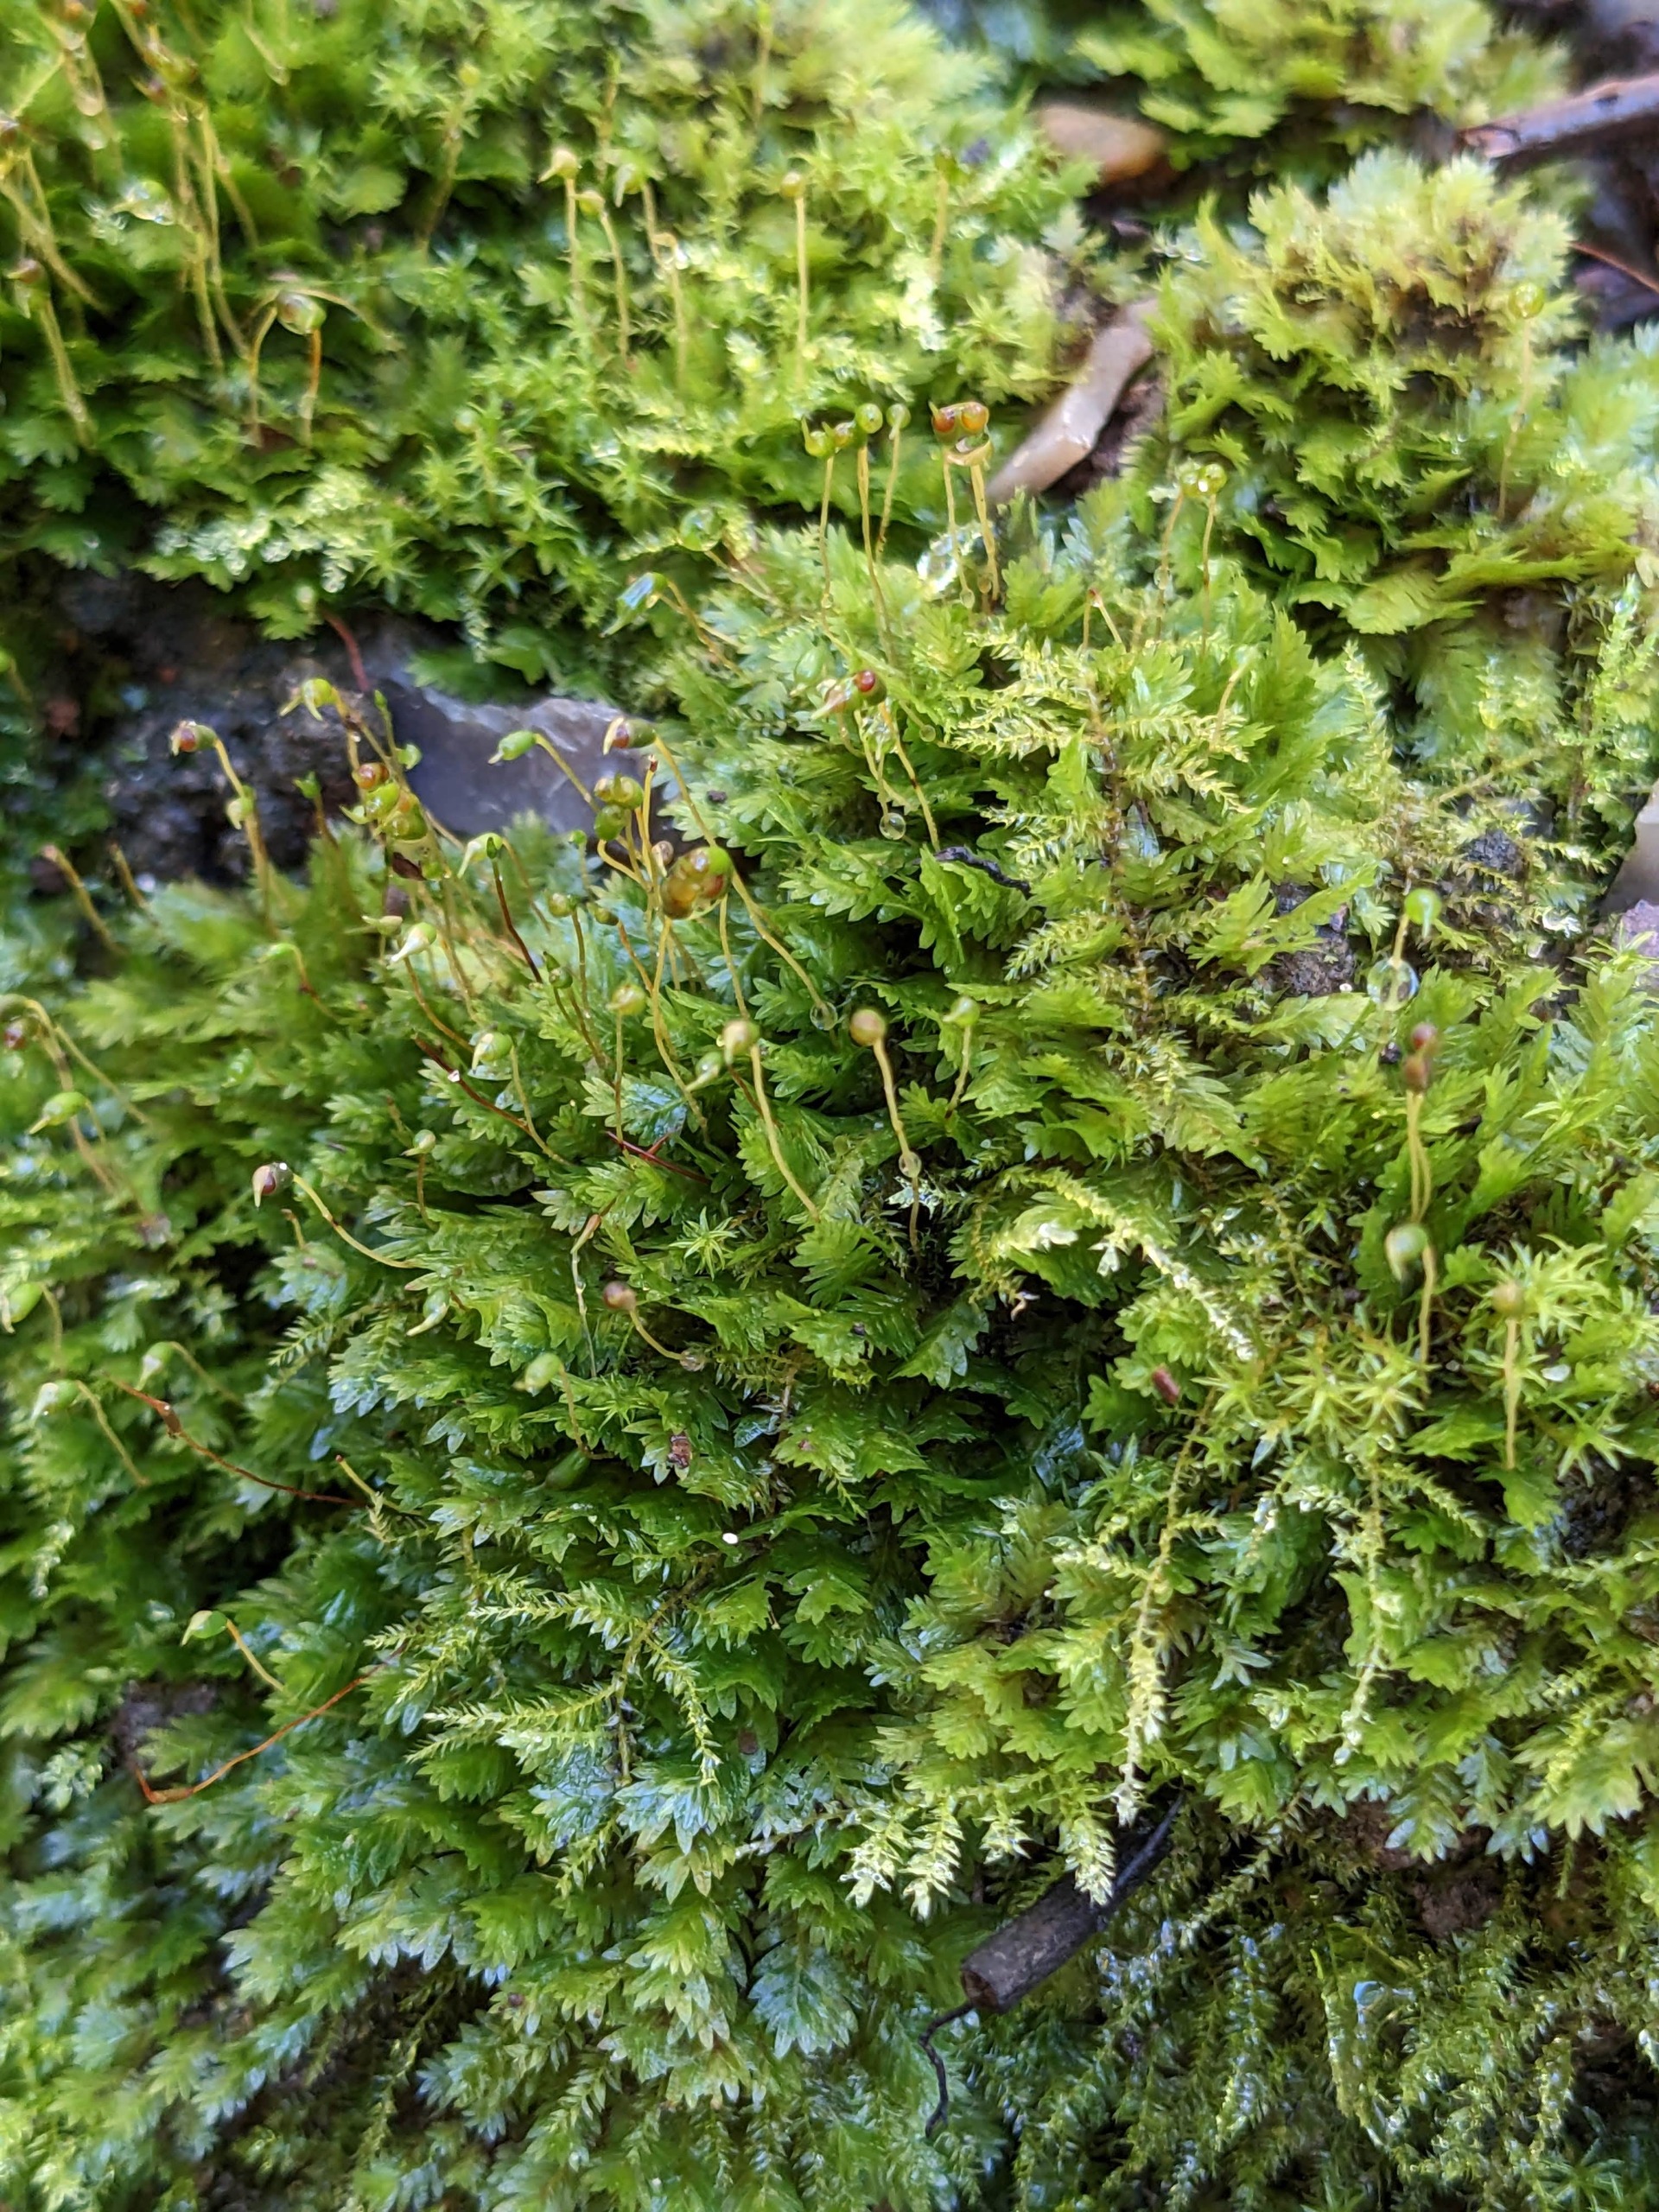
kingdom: Plantae
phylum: Bryophyta
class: Bryopsida
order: Dicranales
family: Fissidentaceae
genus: Fissidens
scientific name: Fissidens taxifolius
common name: Taksbladet rademos
